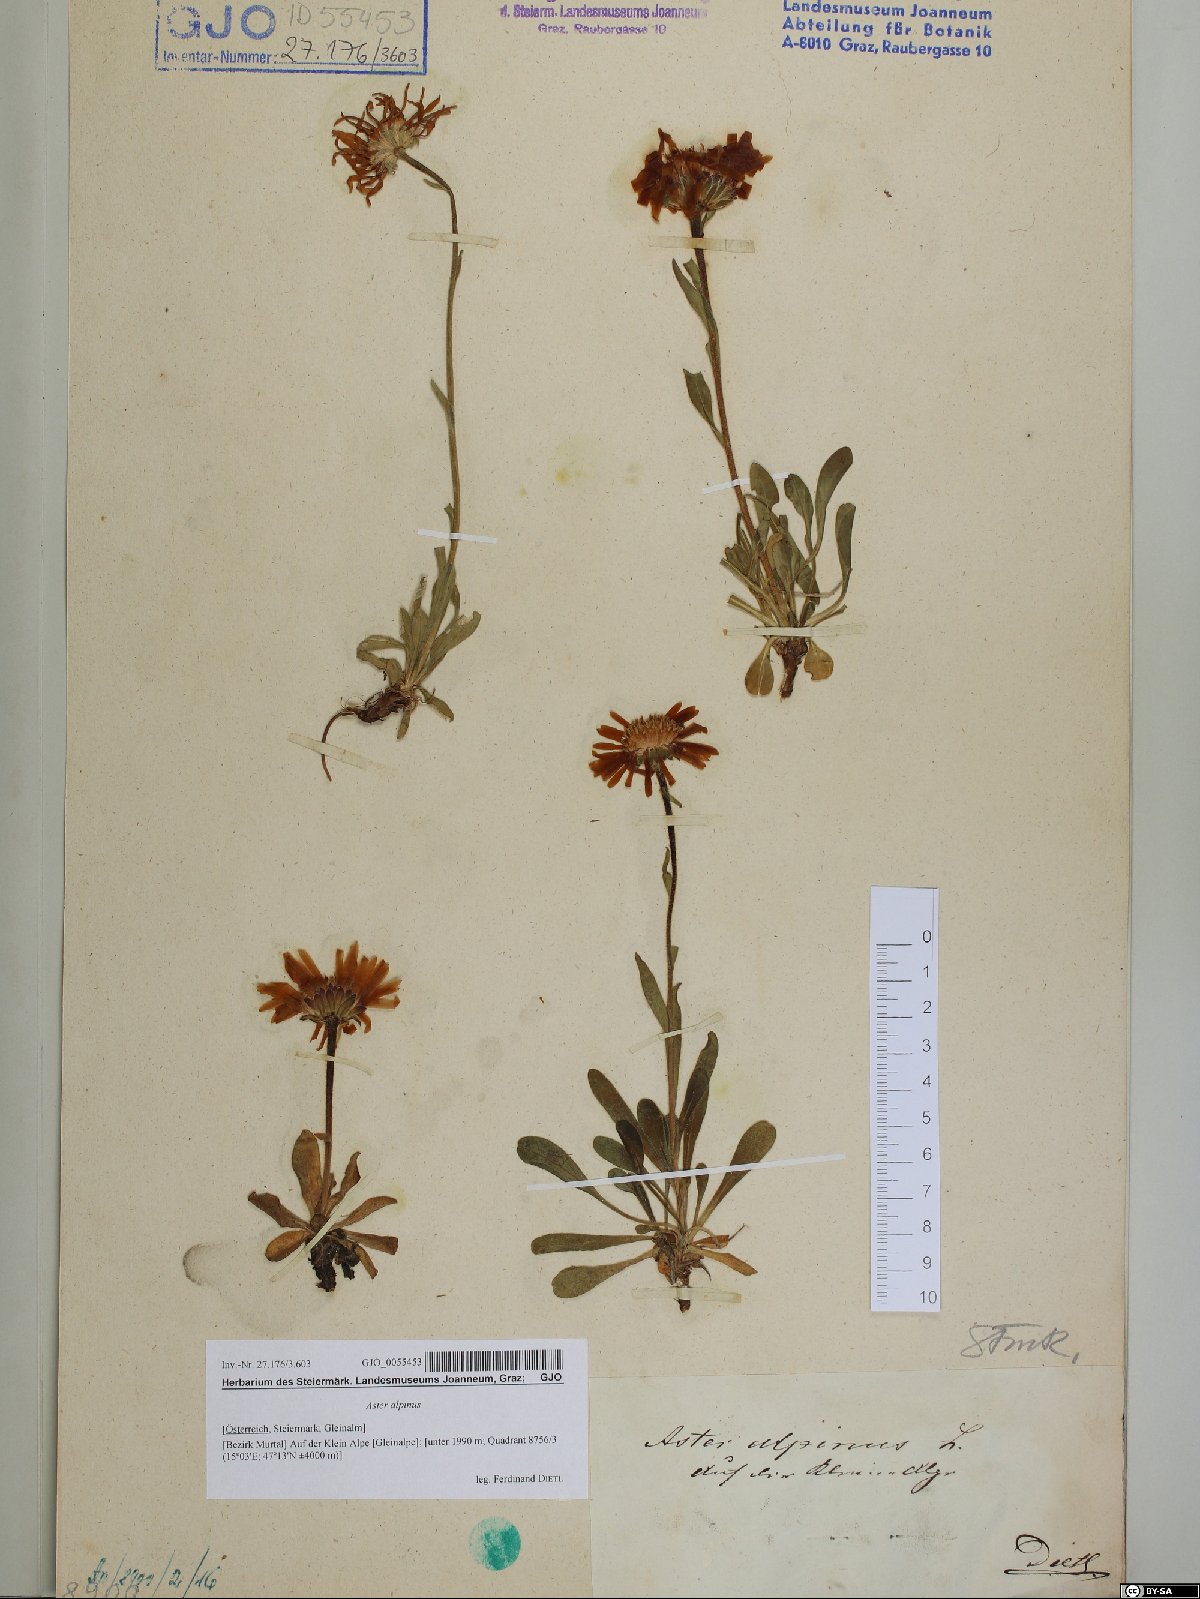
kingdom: Plantae
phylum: Tracheophyta
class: Magnoliopsida
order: Asterales
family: Asteraceae
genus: Aster
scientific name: Aster alpinus
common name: Alpine aster
